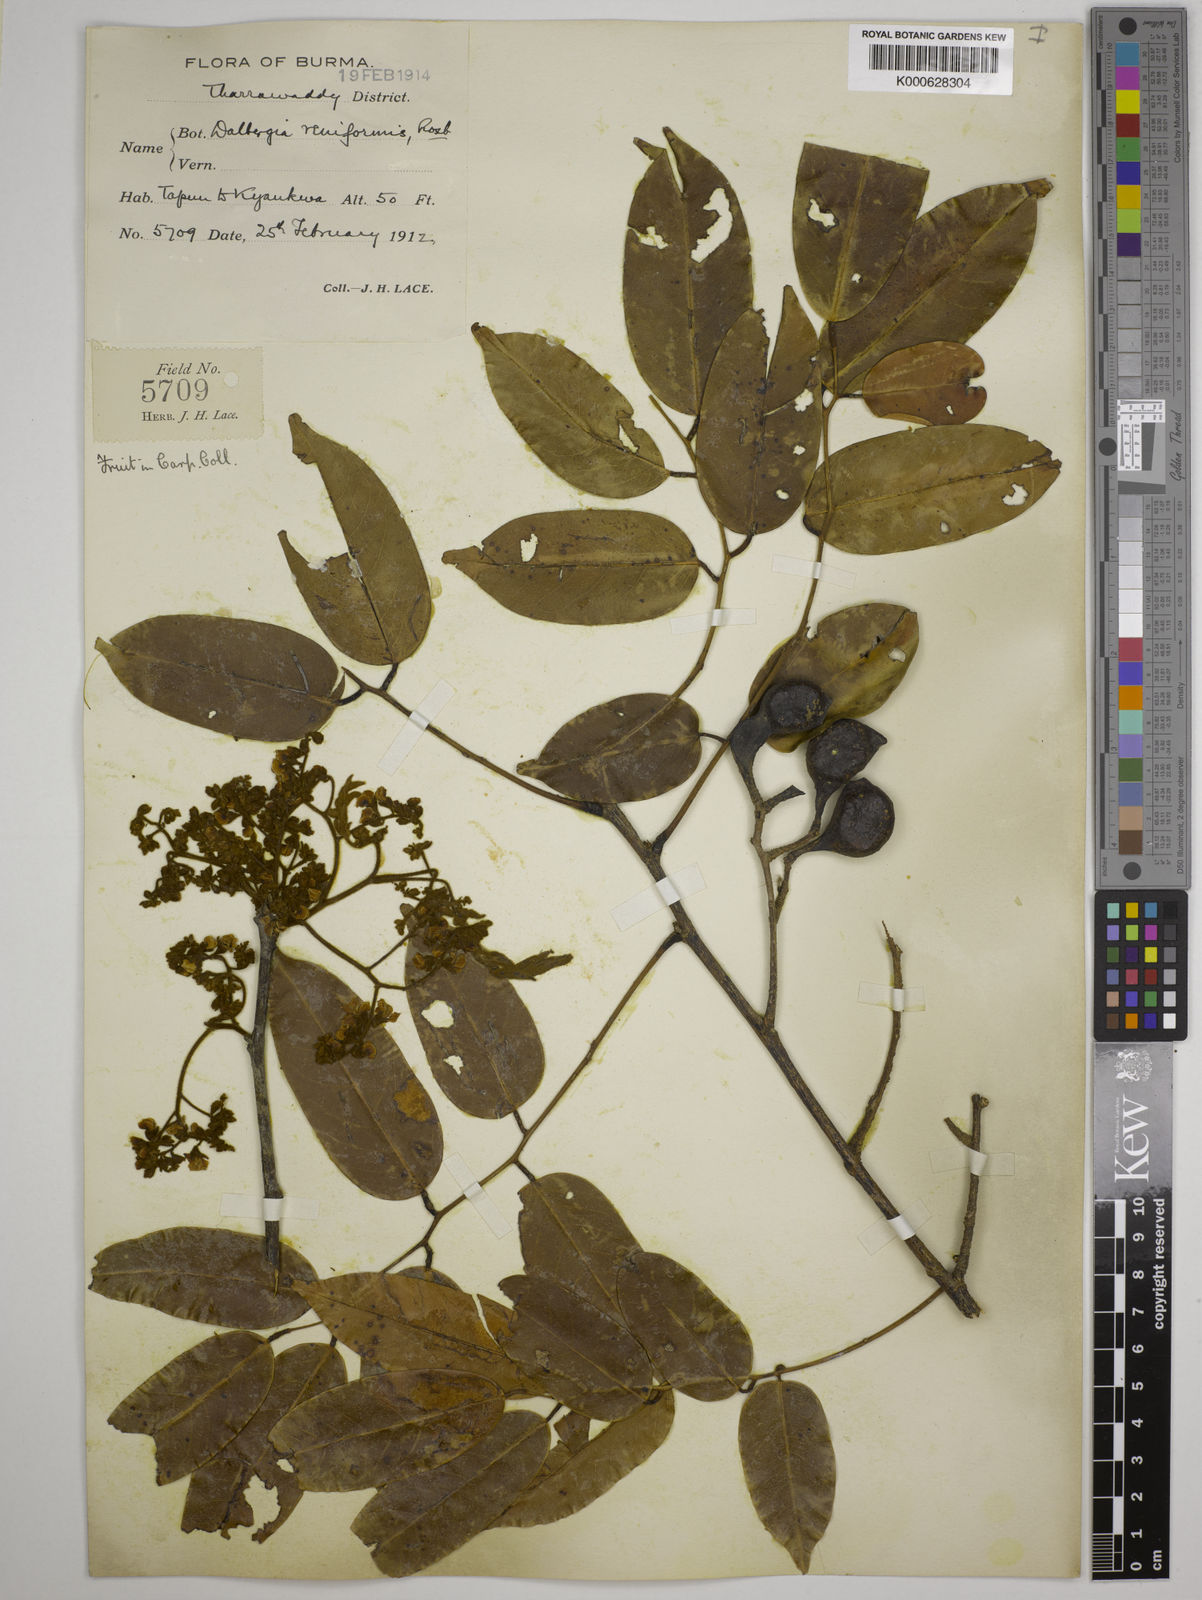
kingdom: Plantae
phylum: Tracheophyta
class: Magnoliopsida
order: Fabales
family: Fabaceae
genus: Dalbergia
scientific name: Dalbergia reniformis
